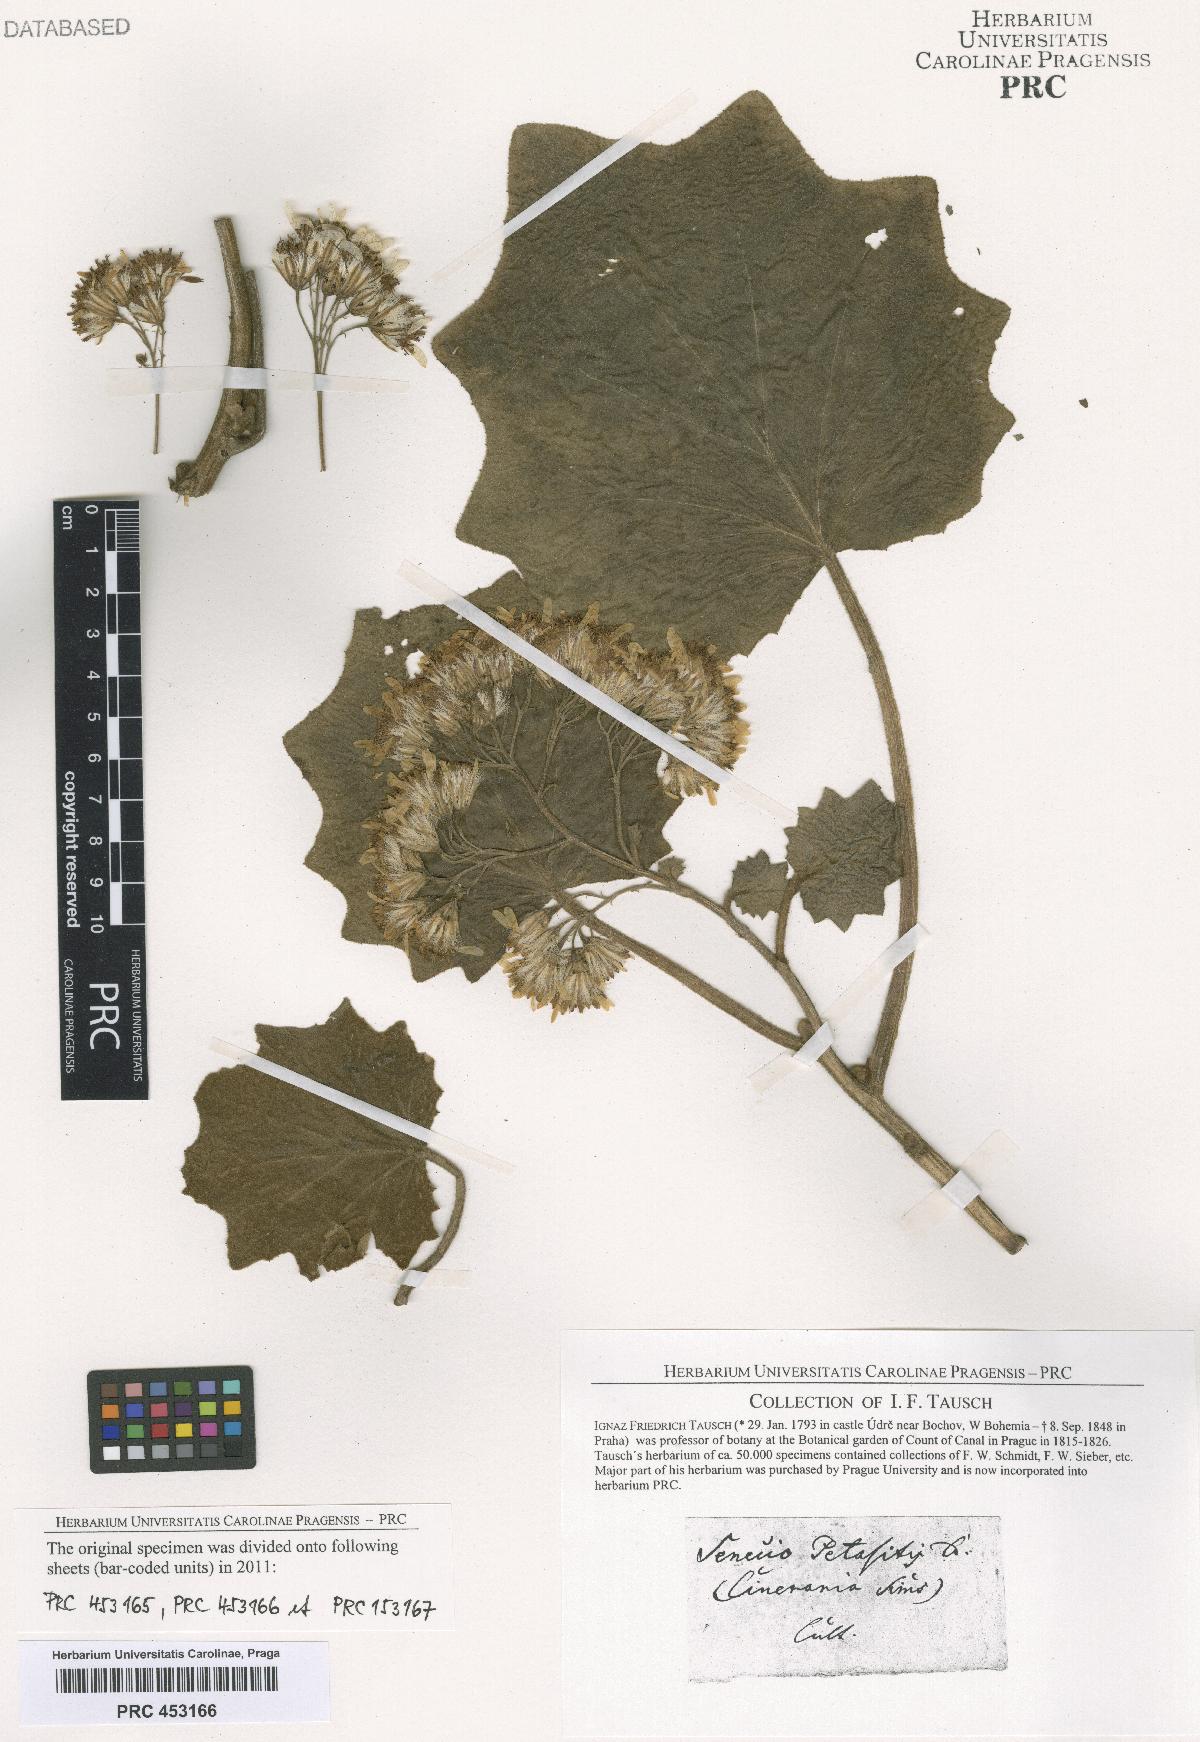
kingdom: Plantae
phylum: Tracheophyta
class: Magnoliopsida
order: Asterales
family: Asteraceae
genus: Roldana
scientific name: Roldana petasitis
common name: California-geranium
